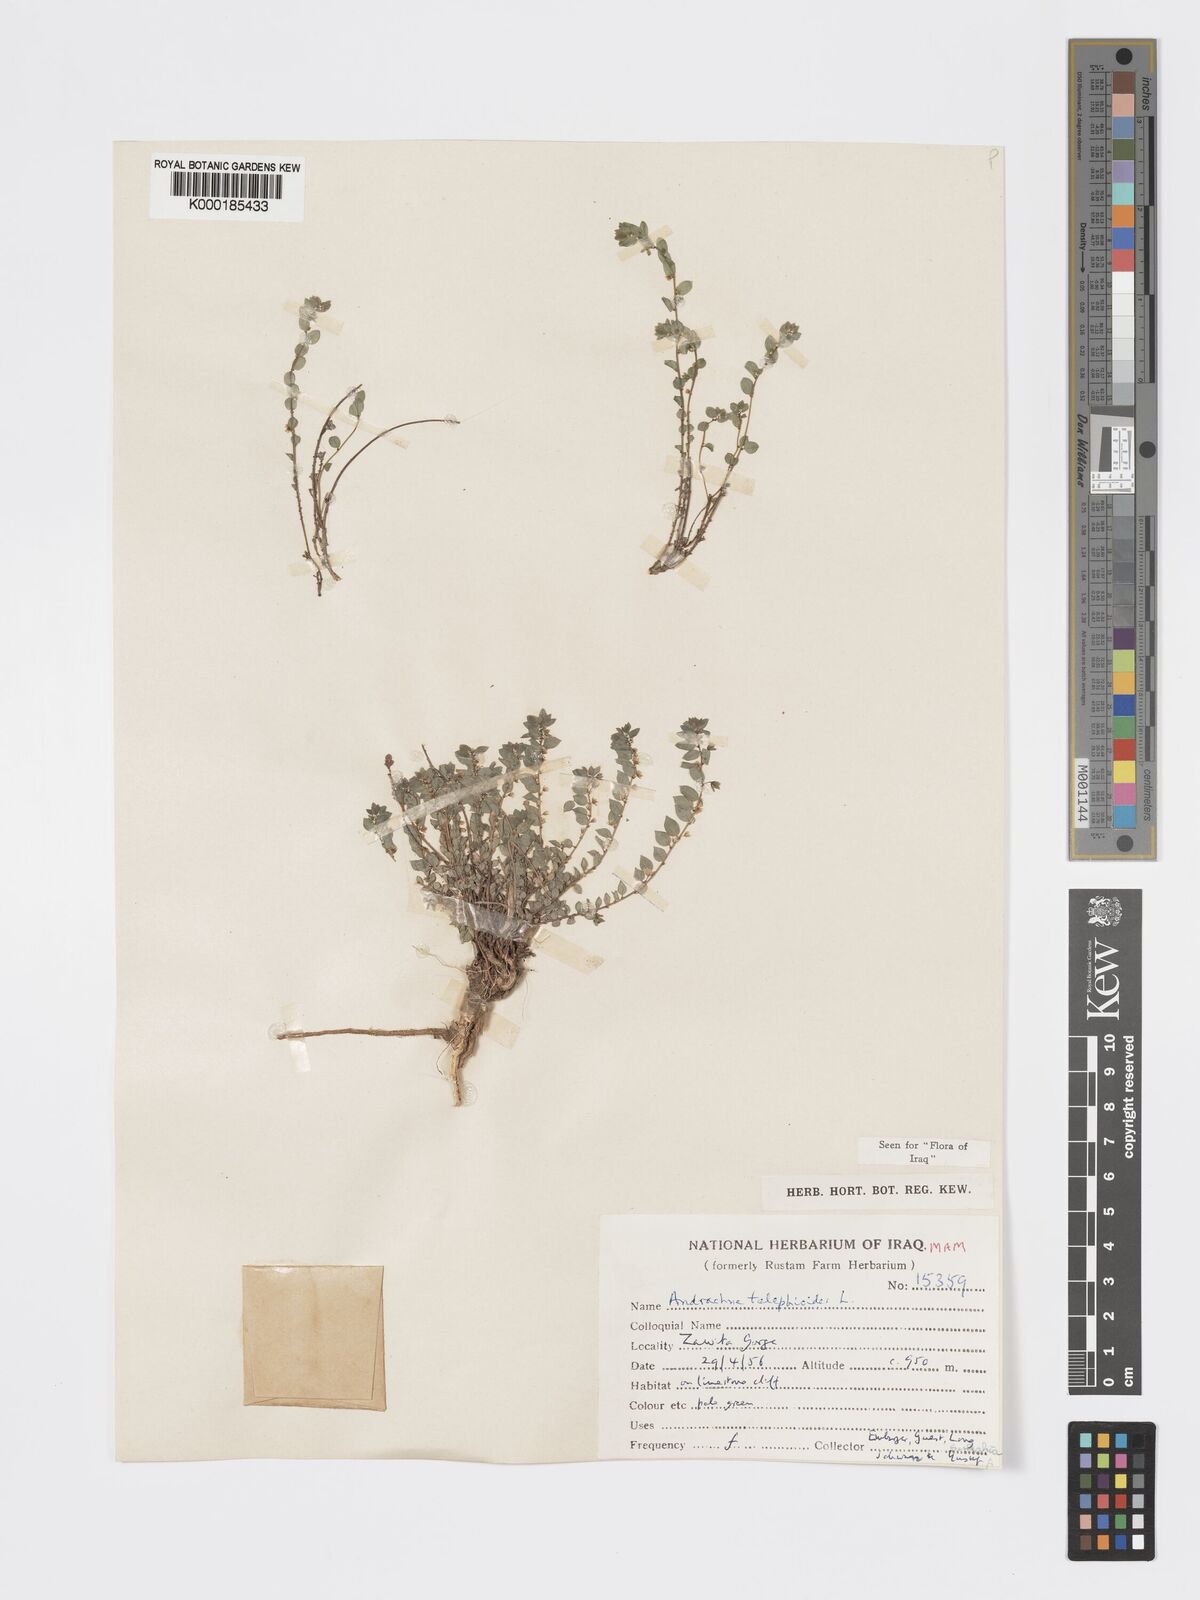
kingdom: Plantae
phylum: Tracheophyta
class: Magnoliopsida
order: Malpighiales
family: Phyllanthaceae
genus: Andrachne
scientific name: Andrachne telephioides
